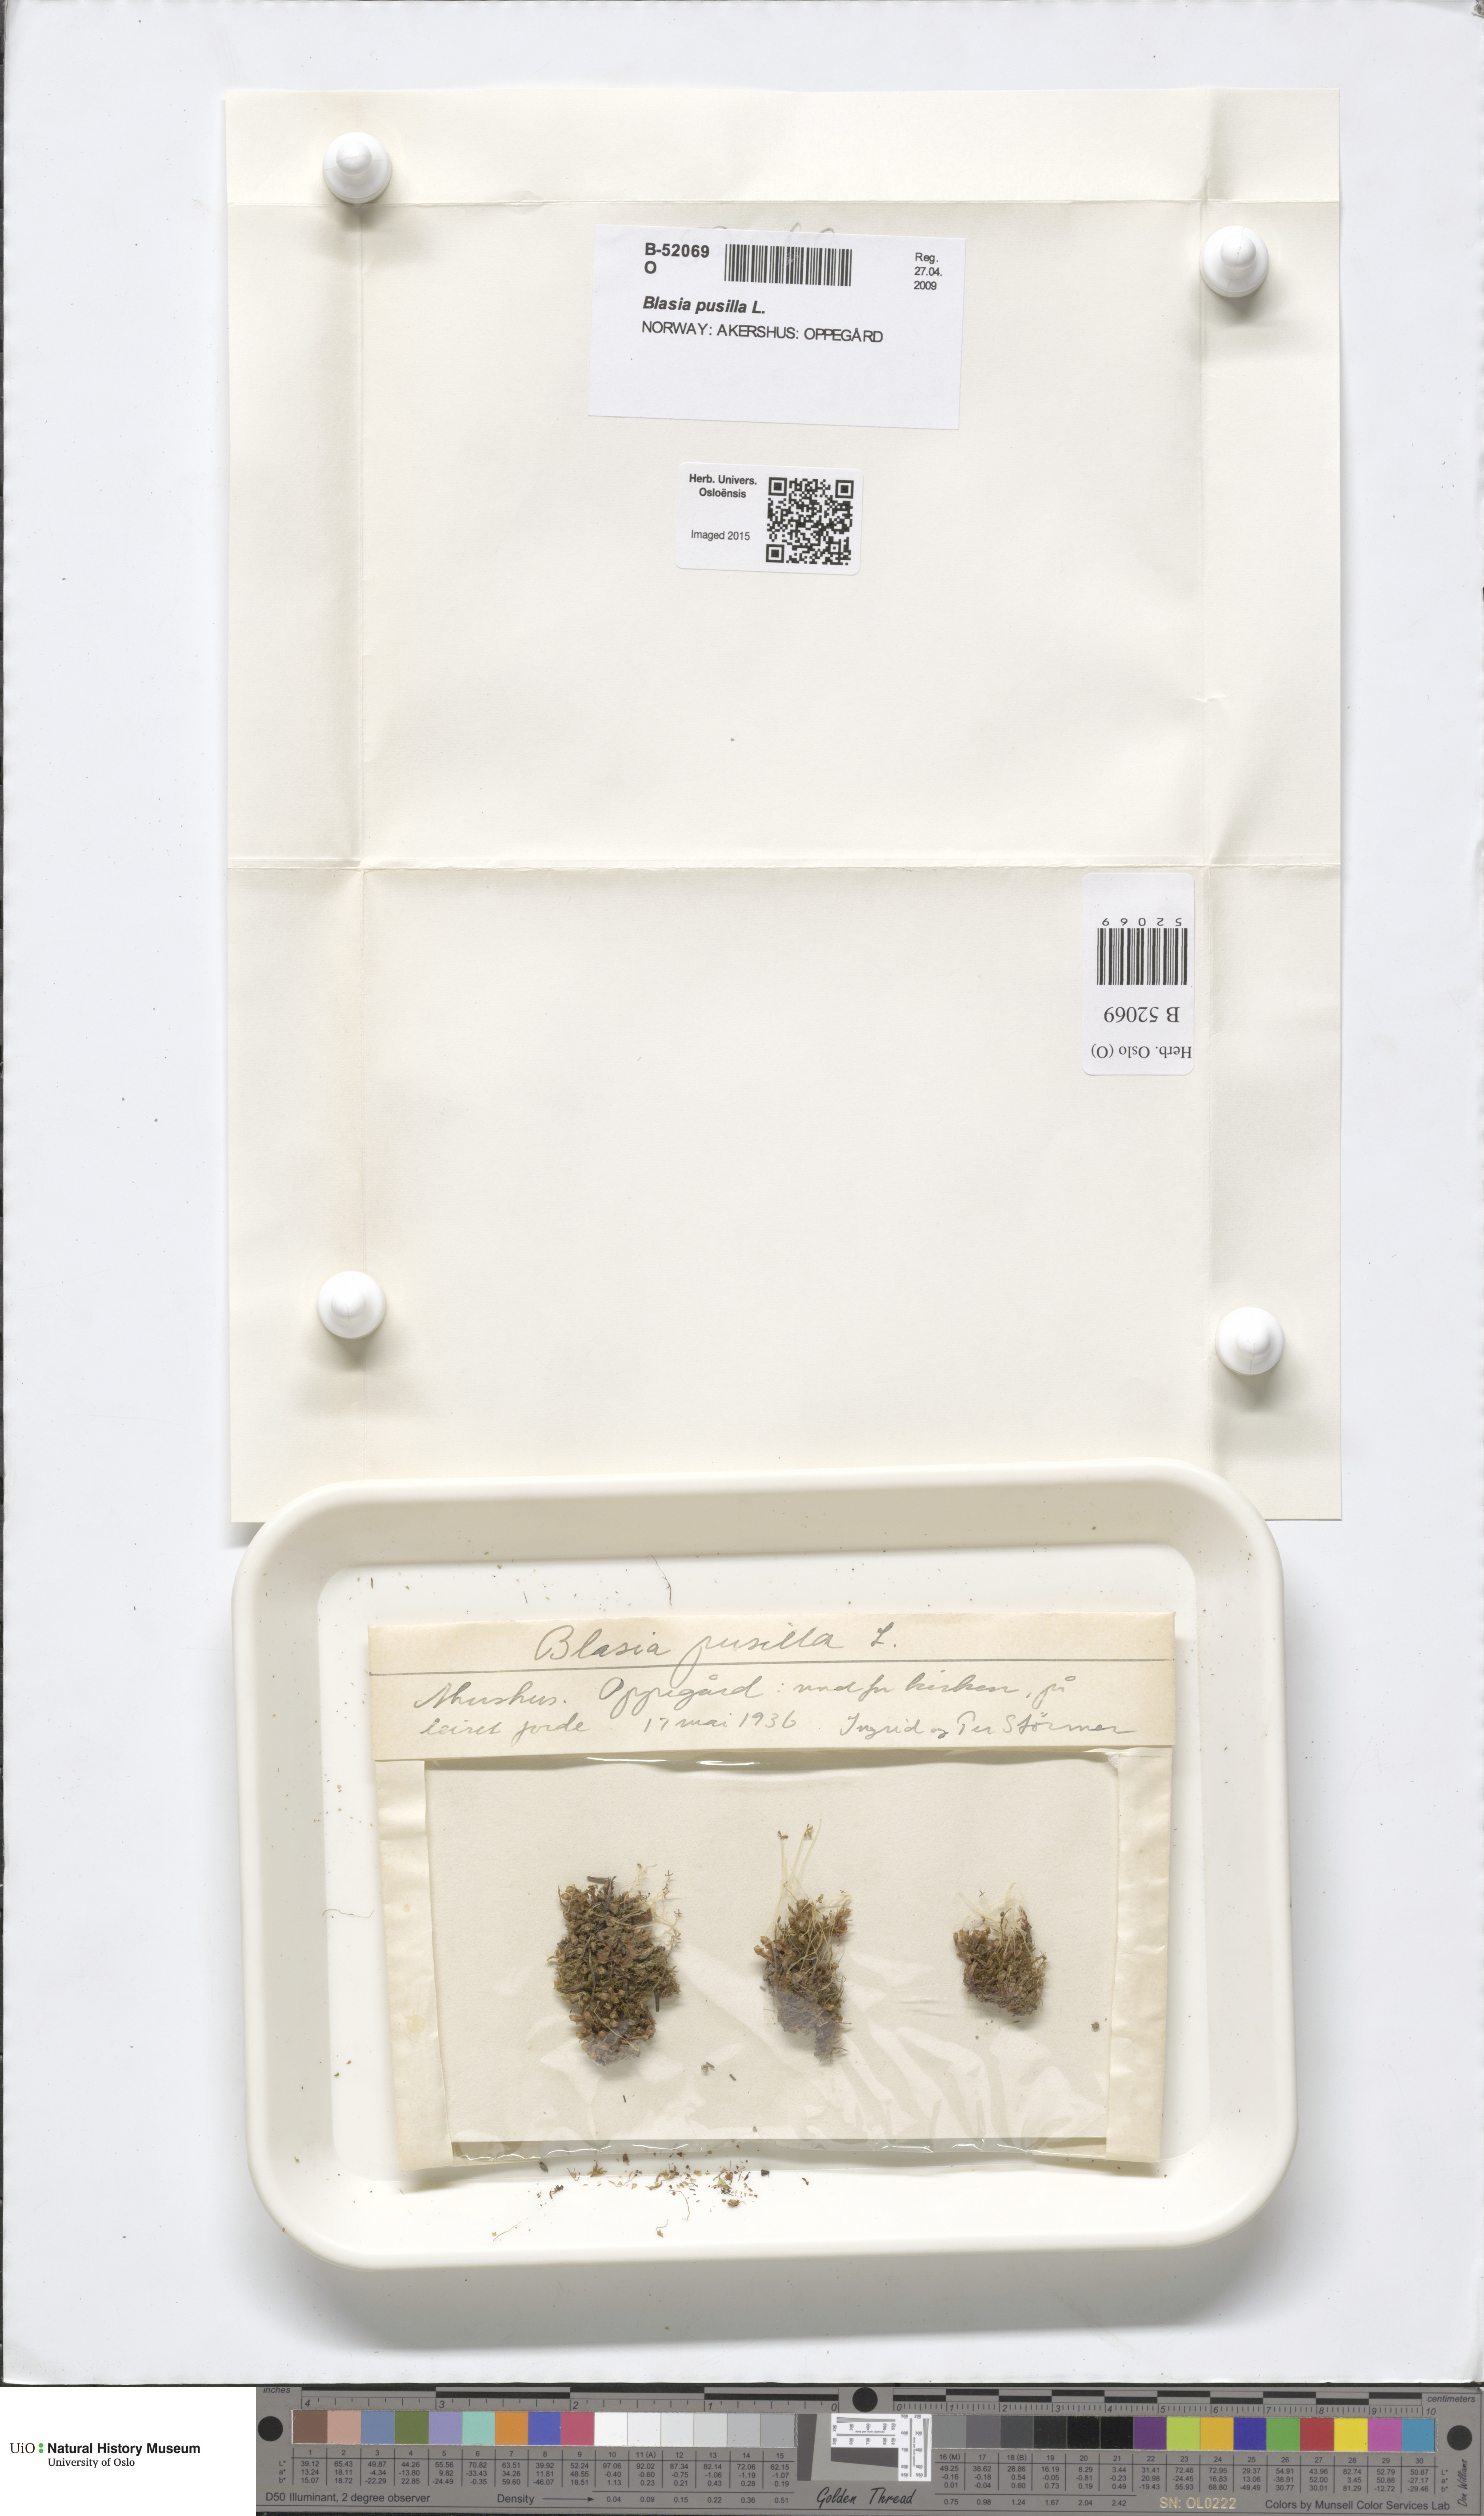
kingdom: Plantae
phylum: Marchantiophyta
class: Marchantiopsida
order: Blasiales
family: Blasiaceae
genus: Blasia
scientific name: Blasia pusilla
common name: Common kettlewort
